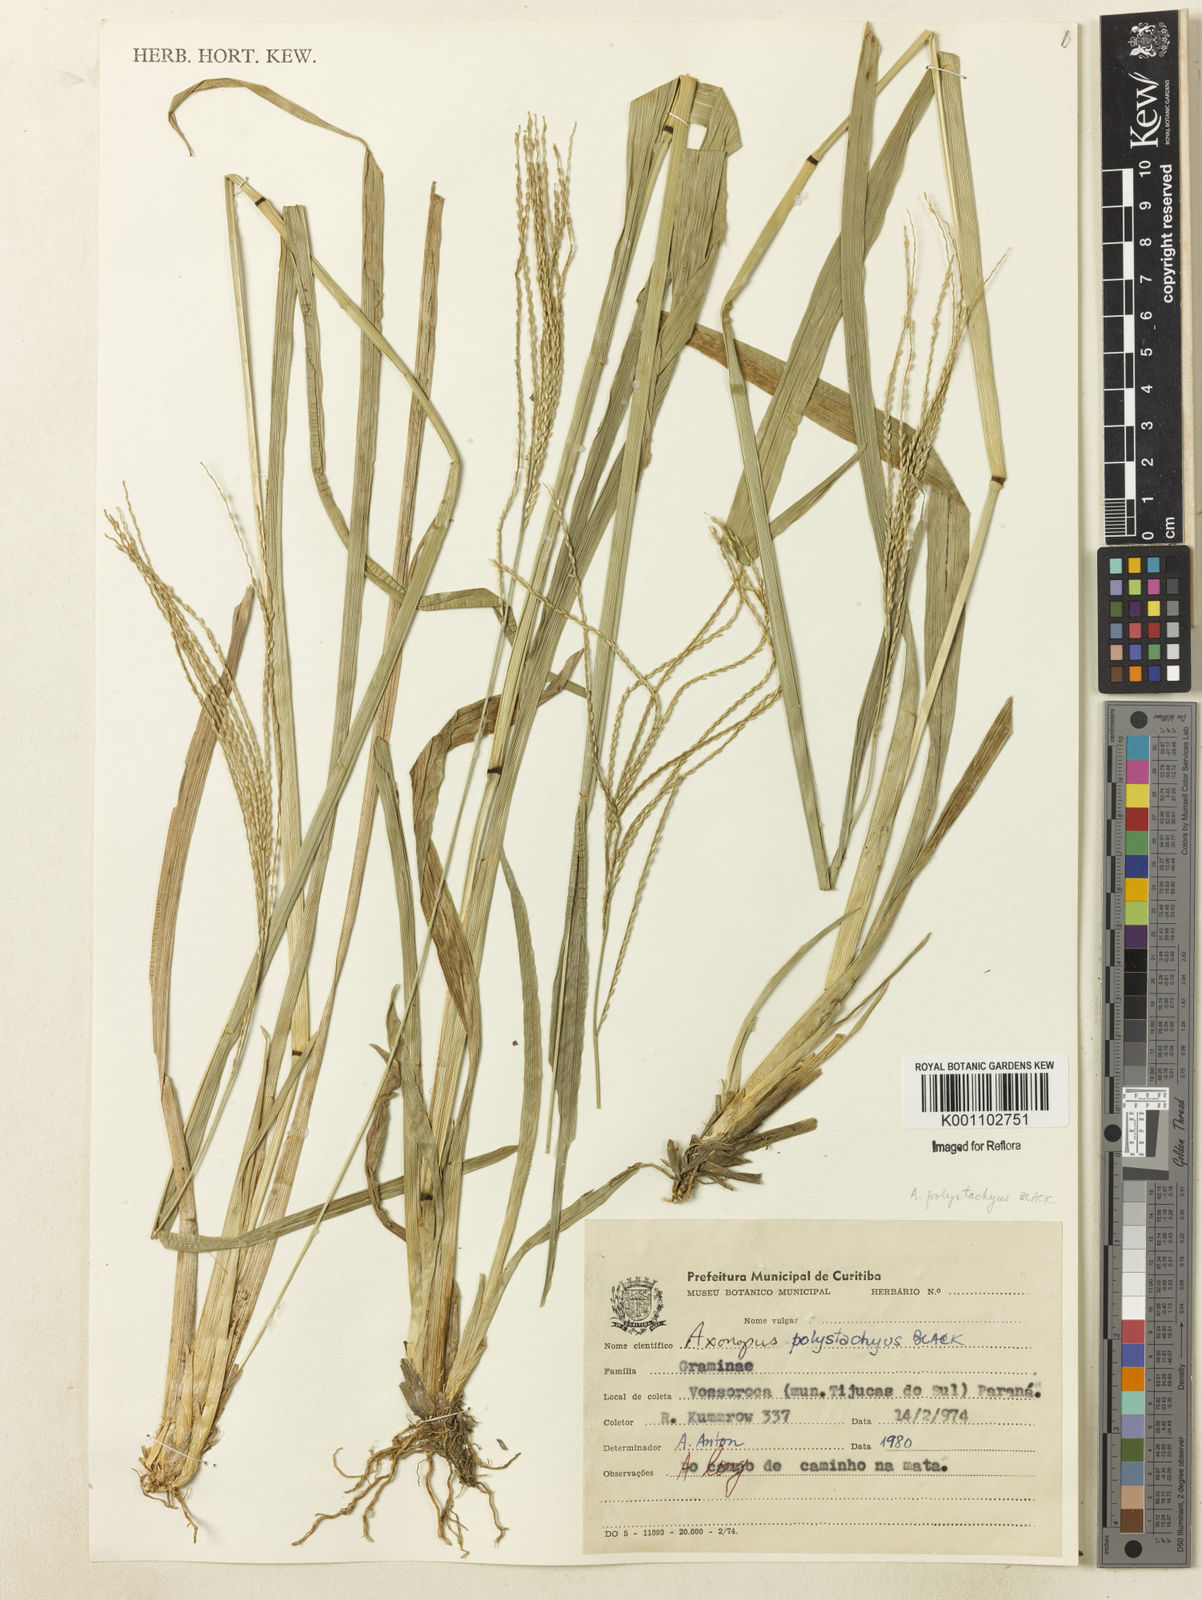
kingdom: Plantae
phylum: Tracheophyta
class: Liliopsida
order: Poales
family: Poaceae
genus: Axonopus
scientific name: Axonopus polystachyus
